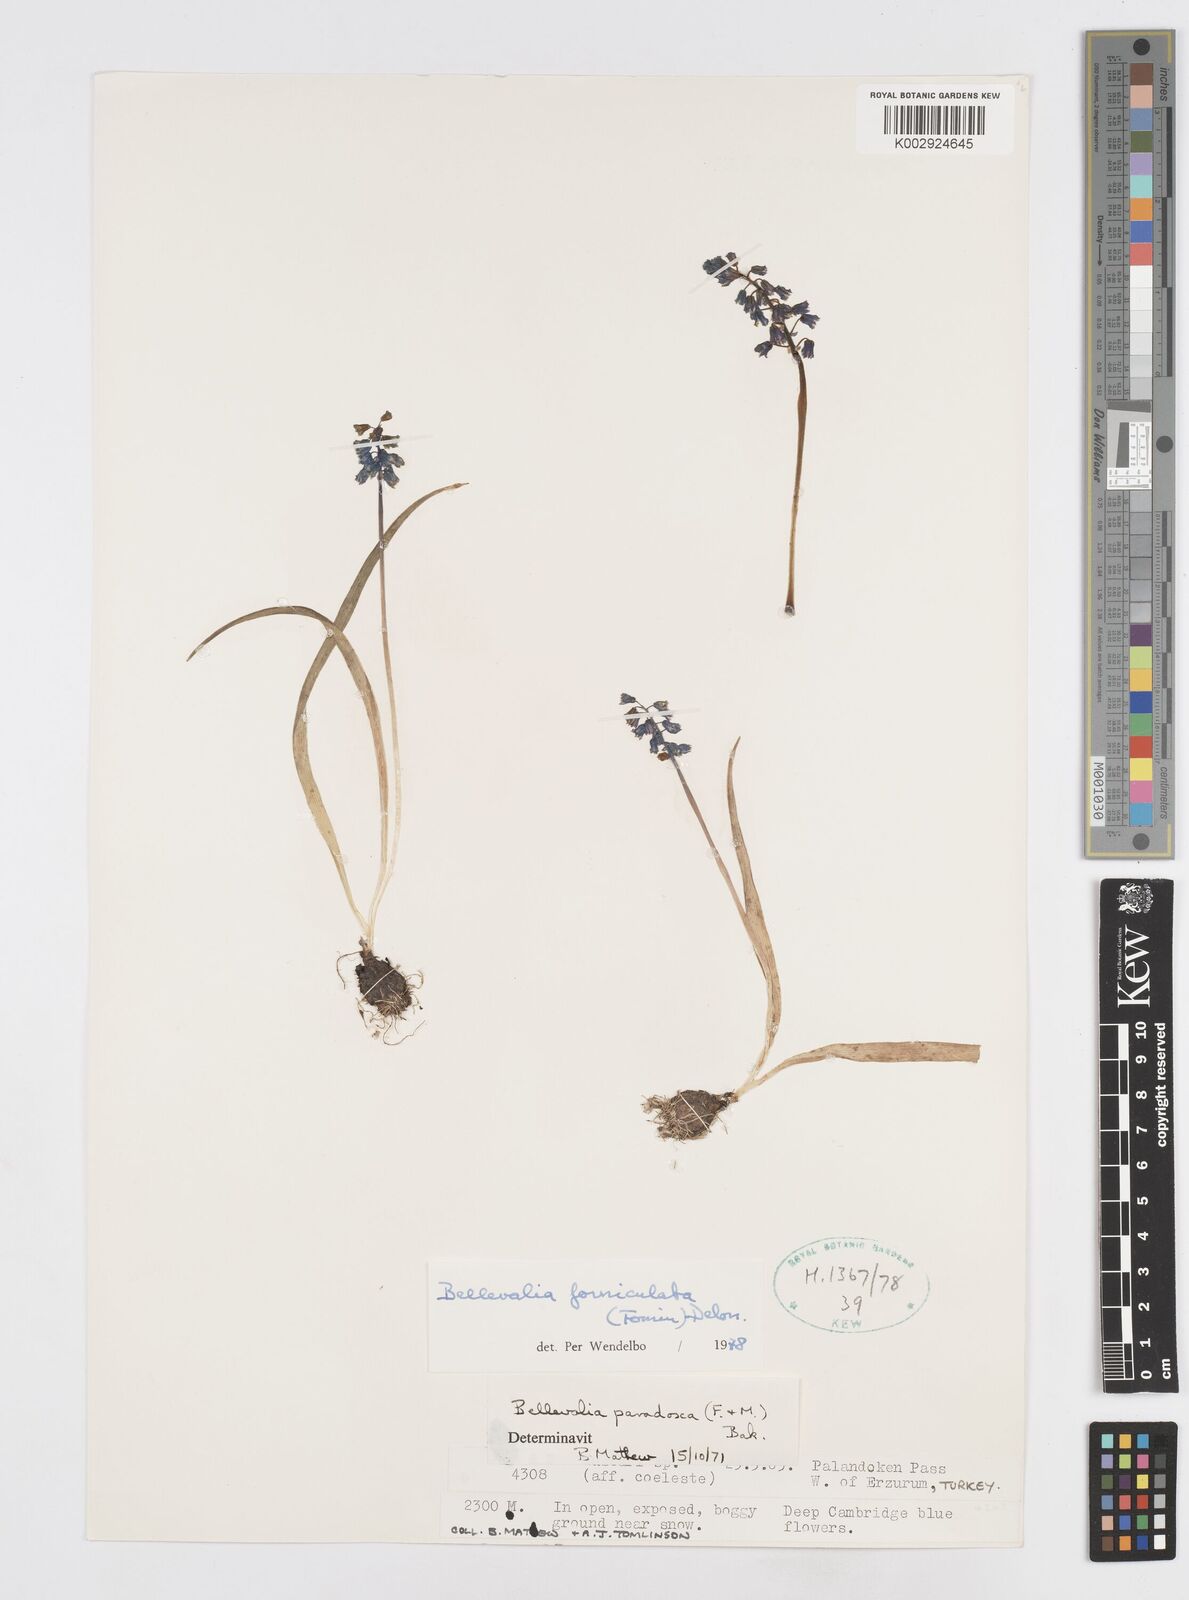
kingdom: Plantae
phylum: Tracheophyta
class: Liliopsida
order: Asparagales
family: Asparagaceae
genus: Muscari
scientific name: Muscari forniculatum
